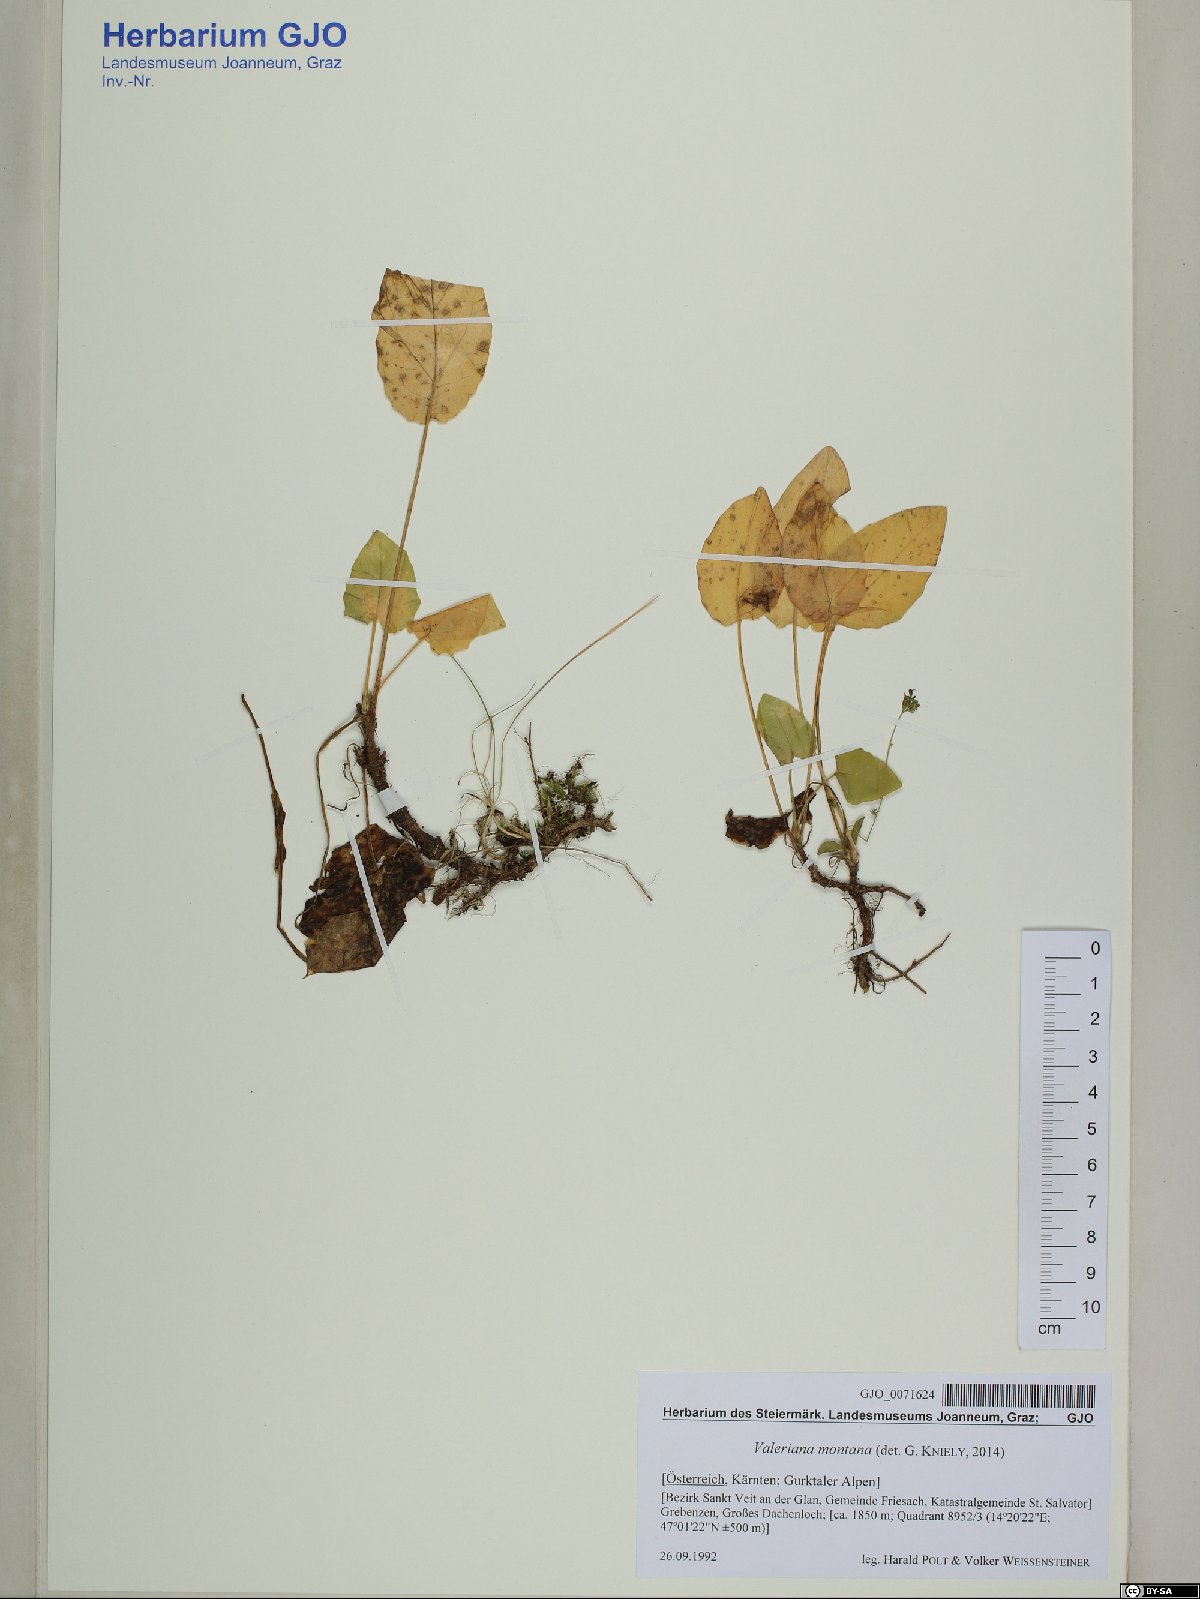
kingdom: Plantae
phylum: Tracheophyta
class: Magnoliopsida
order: Dipsacales
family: Caprifoliaceae
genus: Valeriana
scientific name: Valeriana montana
